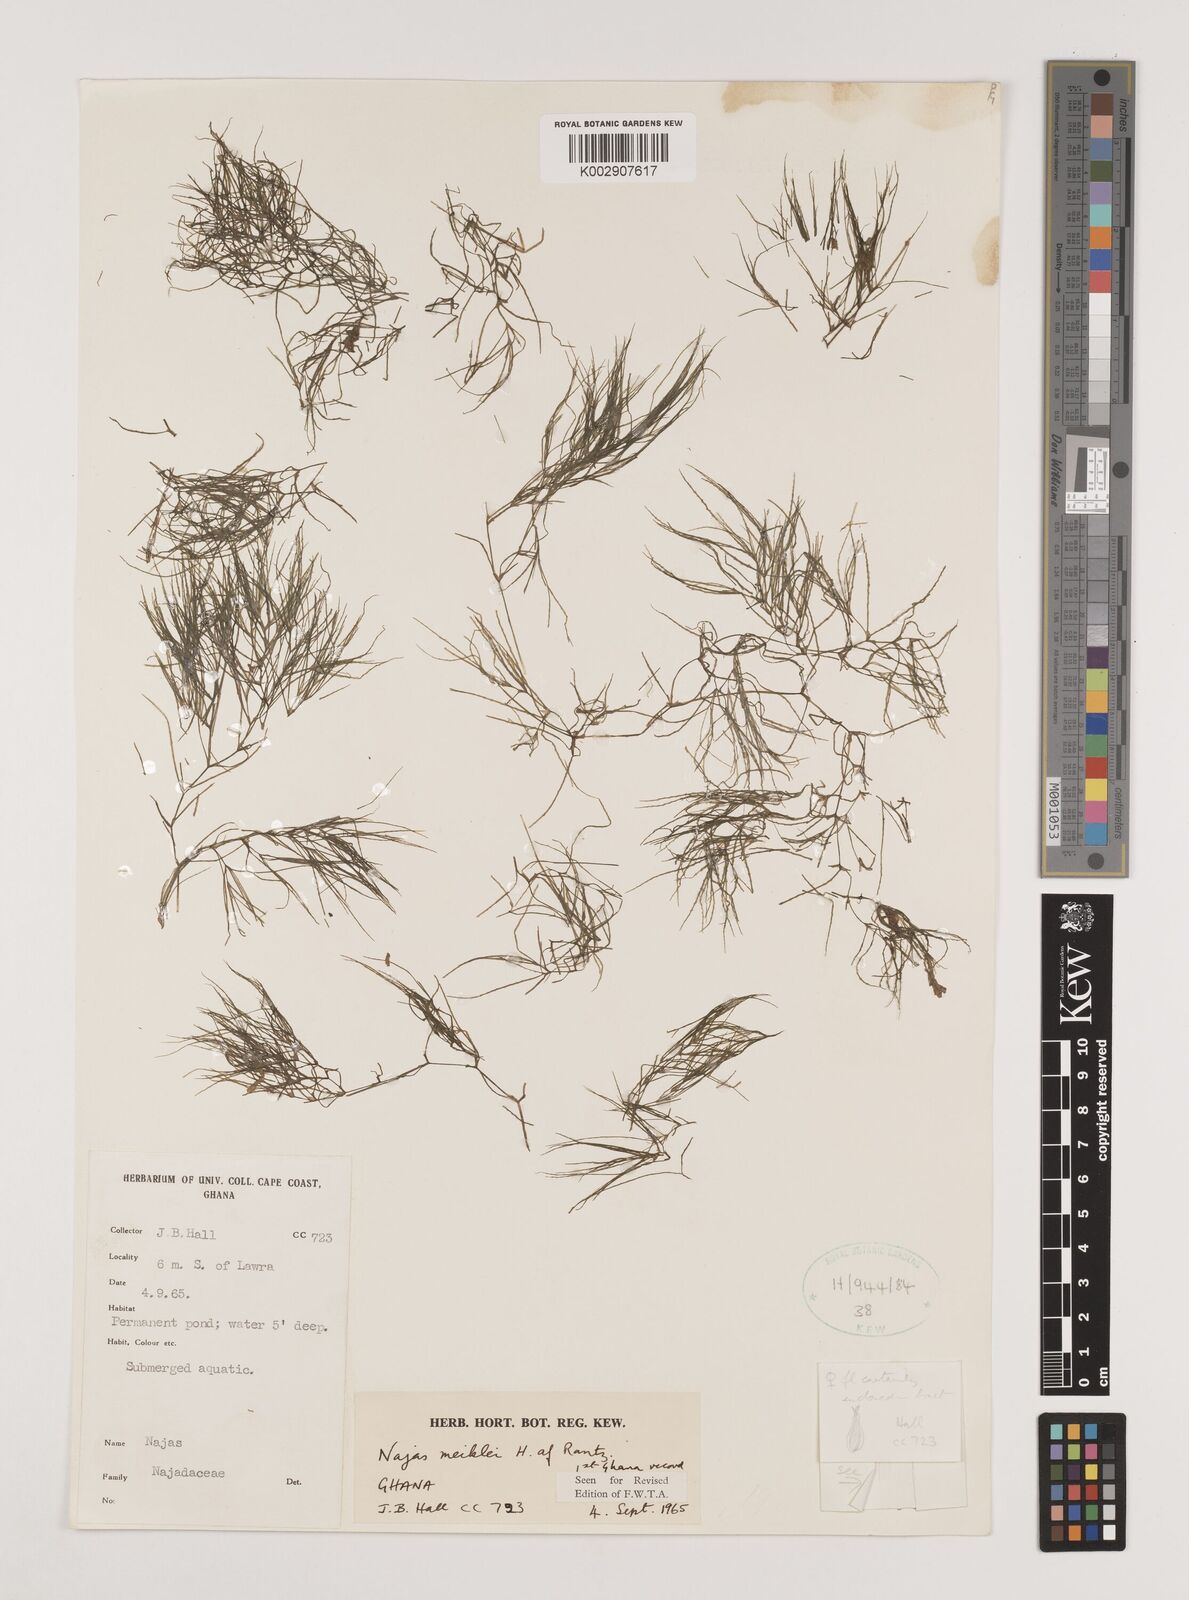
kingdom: Plantae
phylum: Tracheophyta
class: Liliopsida
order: Alismatales
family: Hydrocharitaceae
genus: Najas
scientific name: Najas testui
